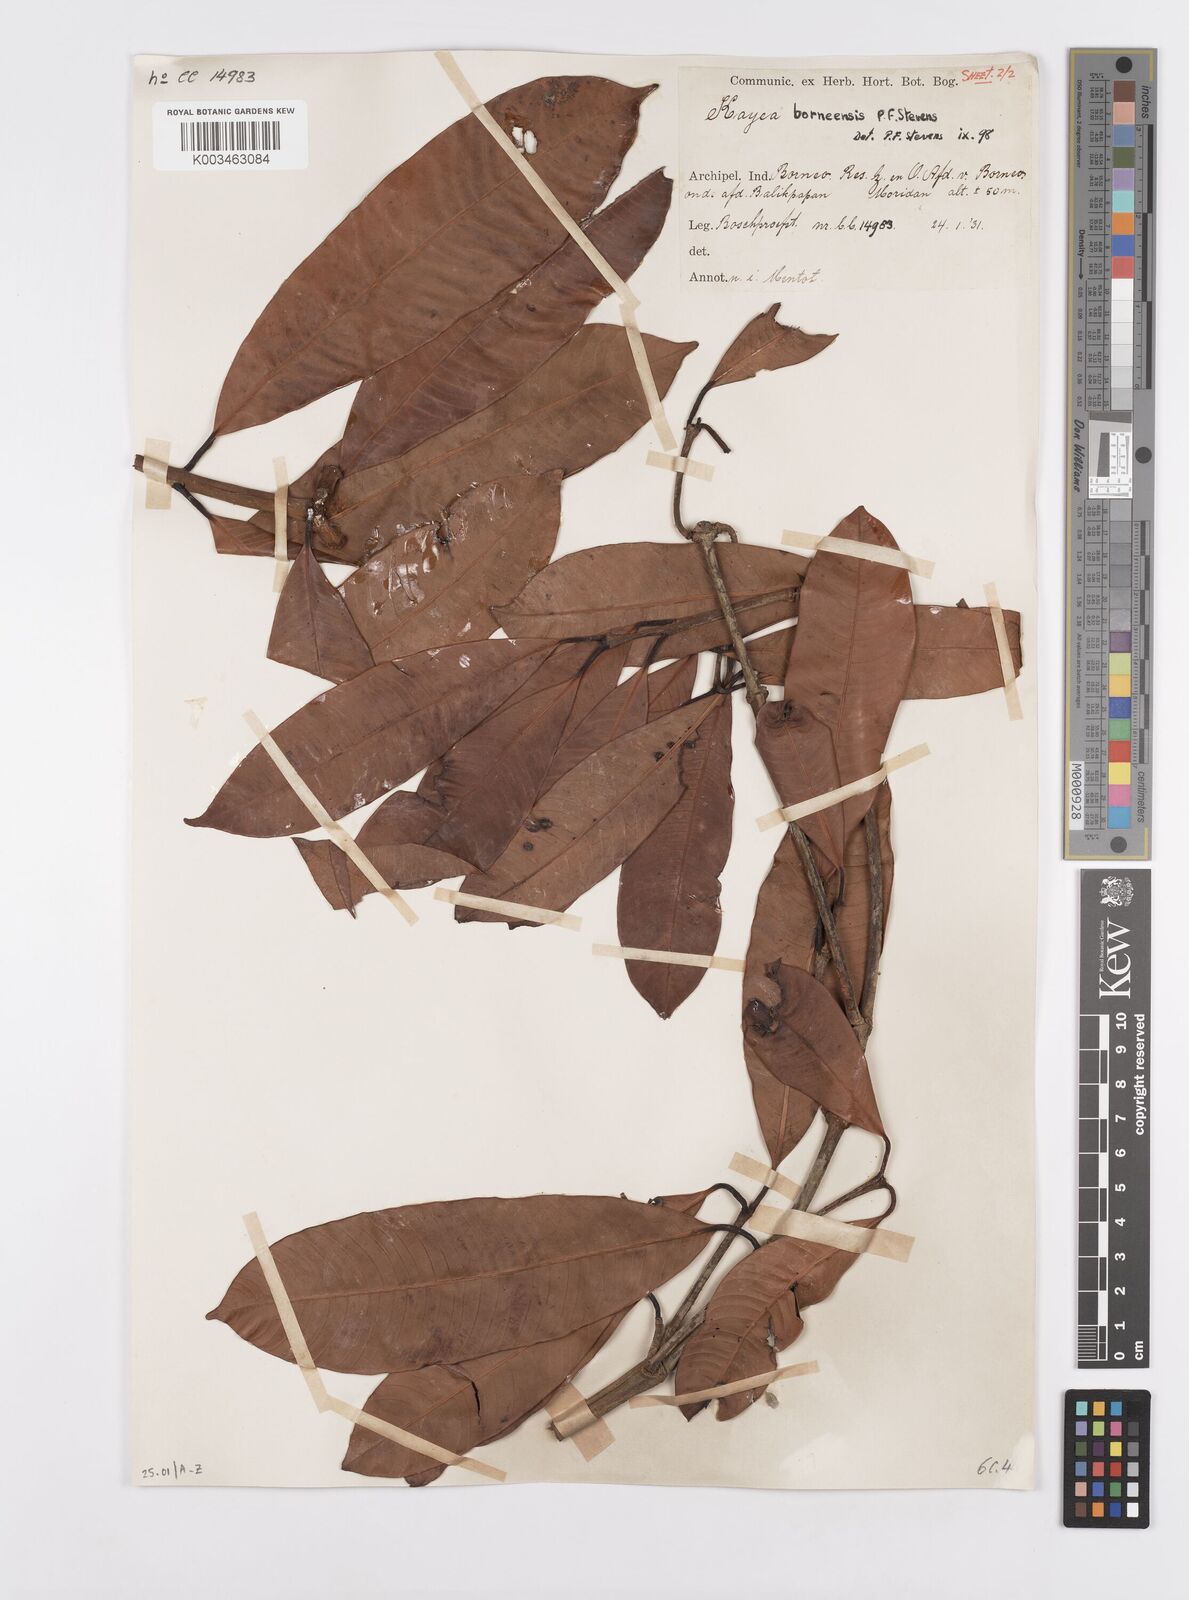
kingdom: Plantae
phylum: Tracheophyta
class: Magnoliopsida
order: Malpighiales
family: Calophyllaceae
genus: Kayea
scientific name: Kayea borneensis
